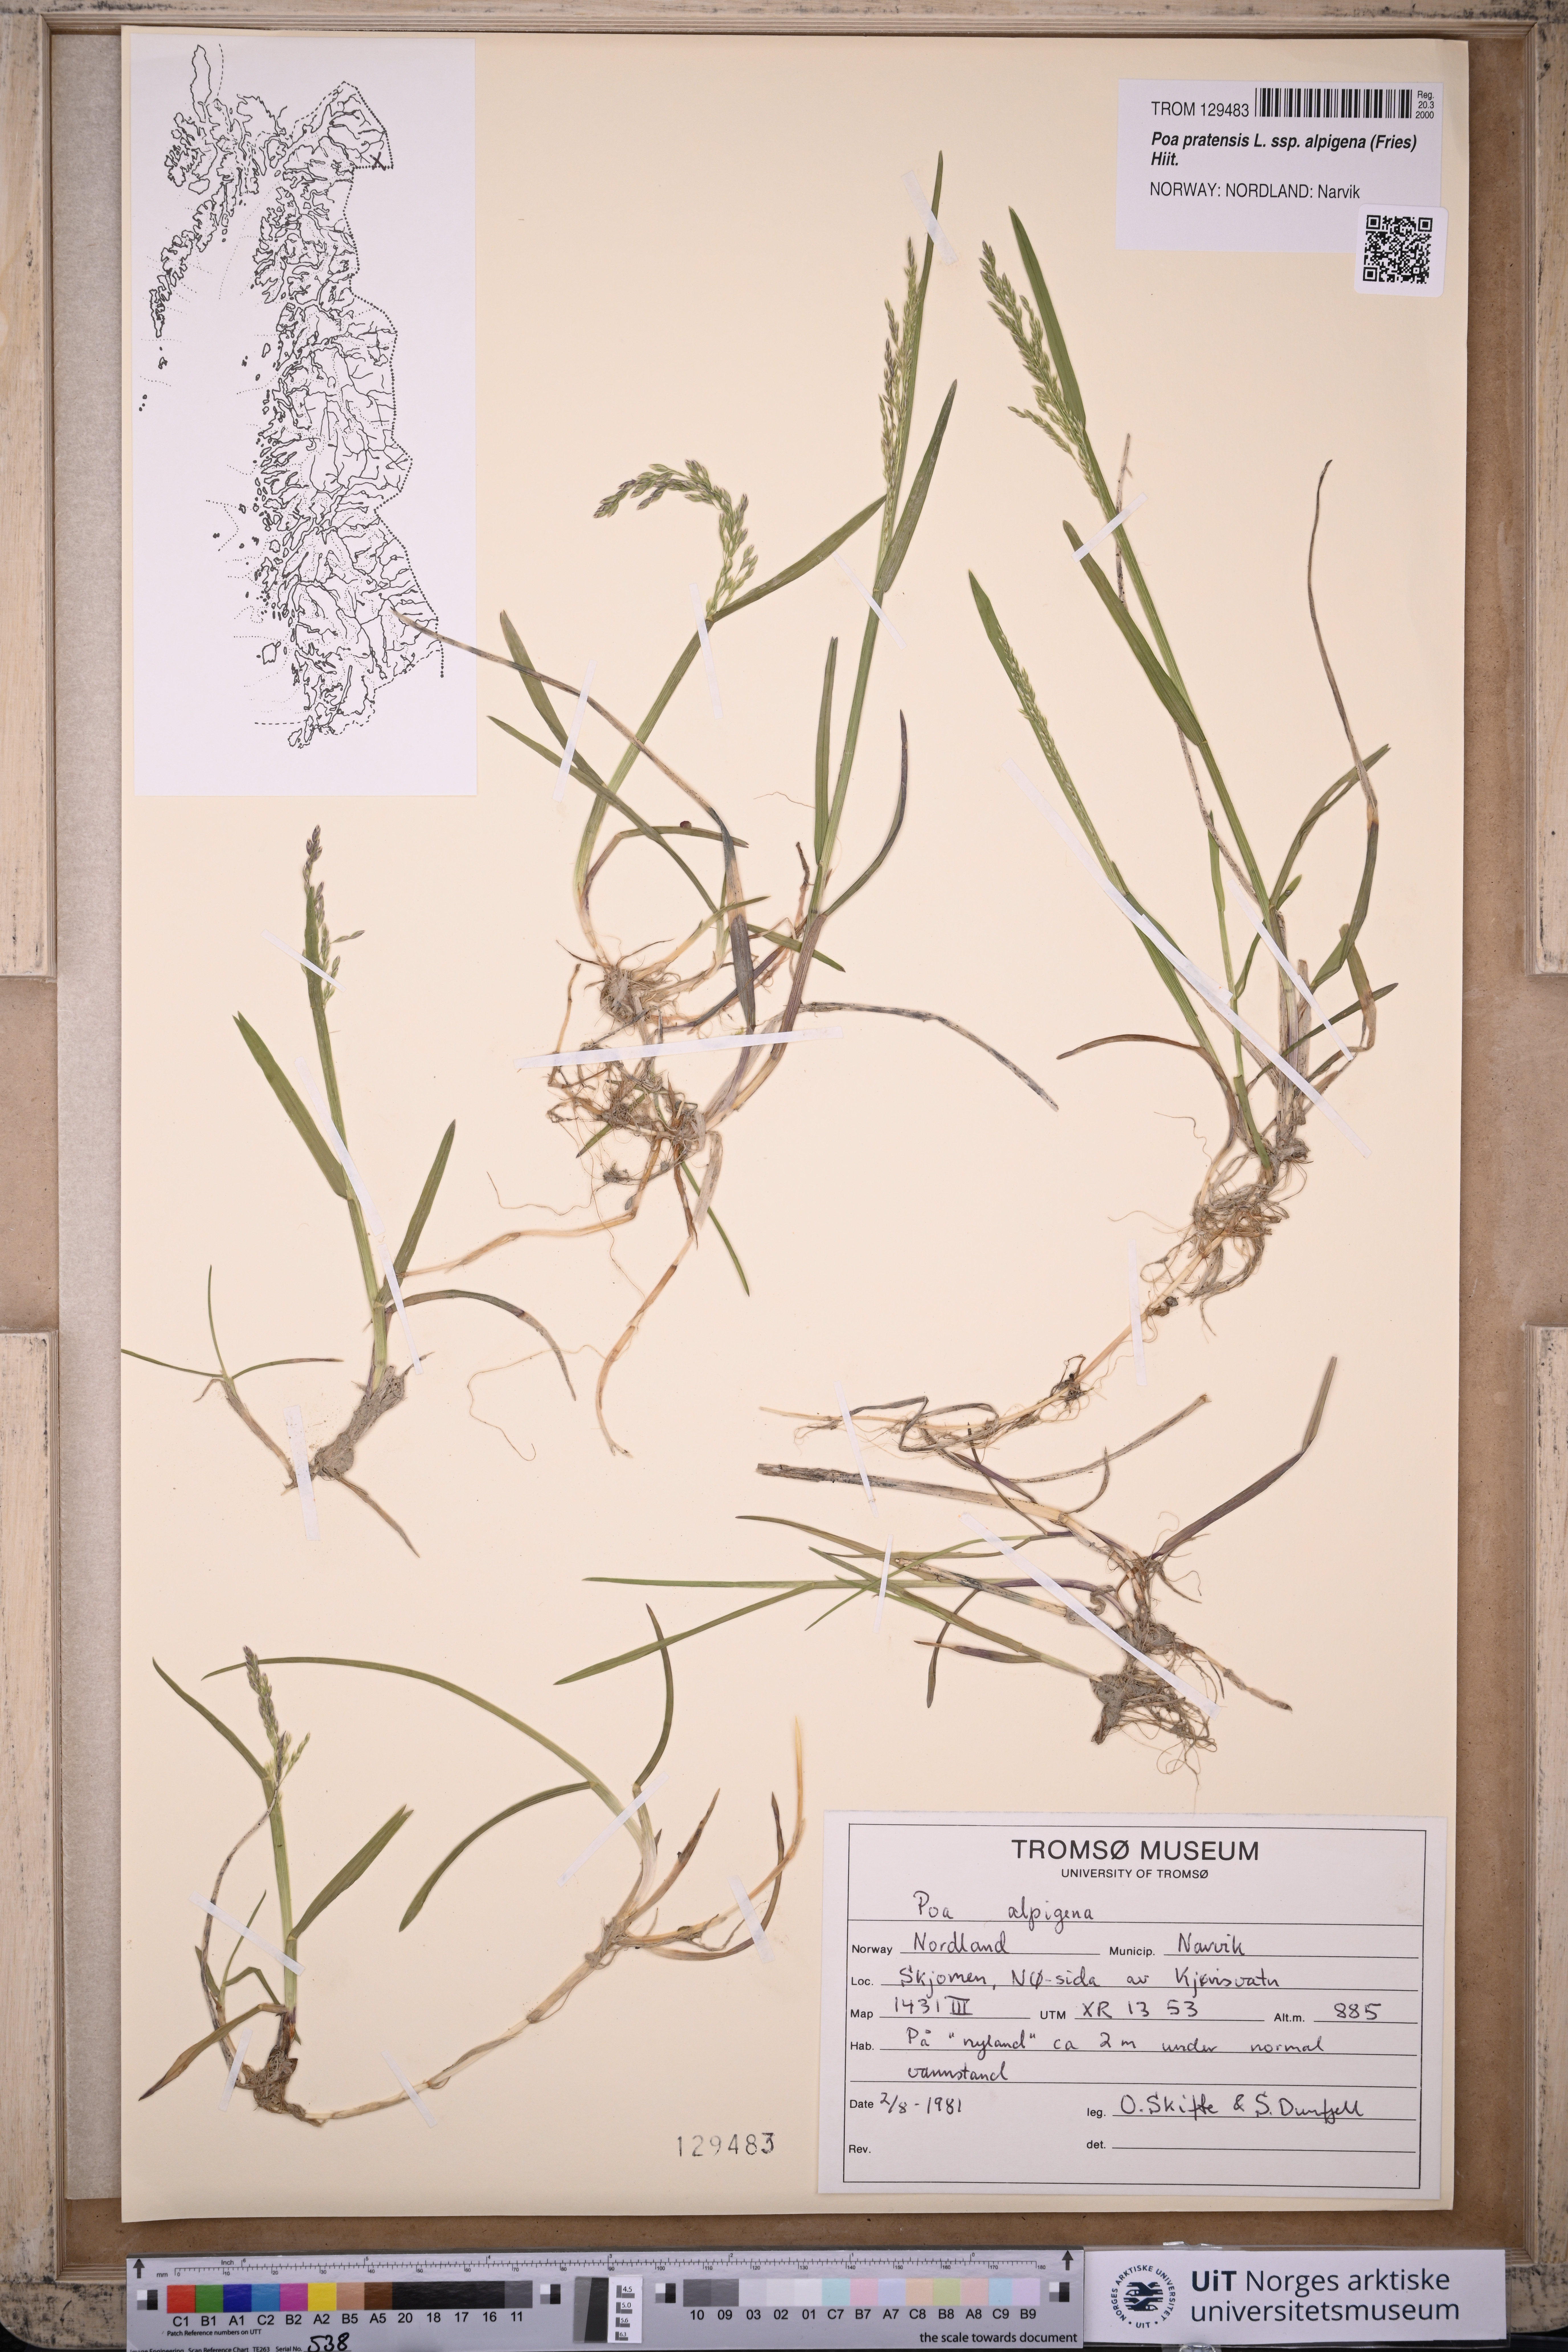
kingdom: Plantae
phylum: Tracheophyta
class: Liliopsida
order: Poales
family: Poaceae
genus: Poa
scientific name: Poa alpigena
